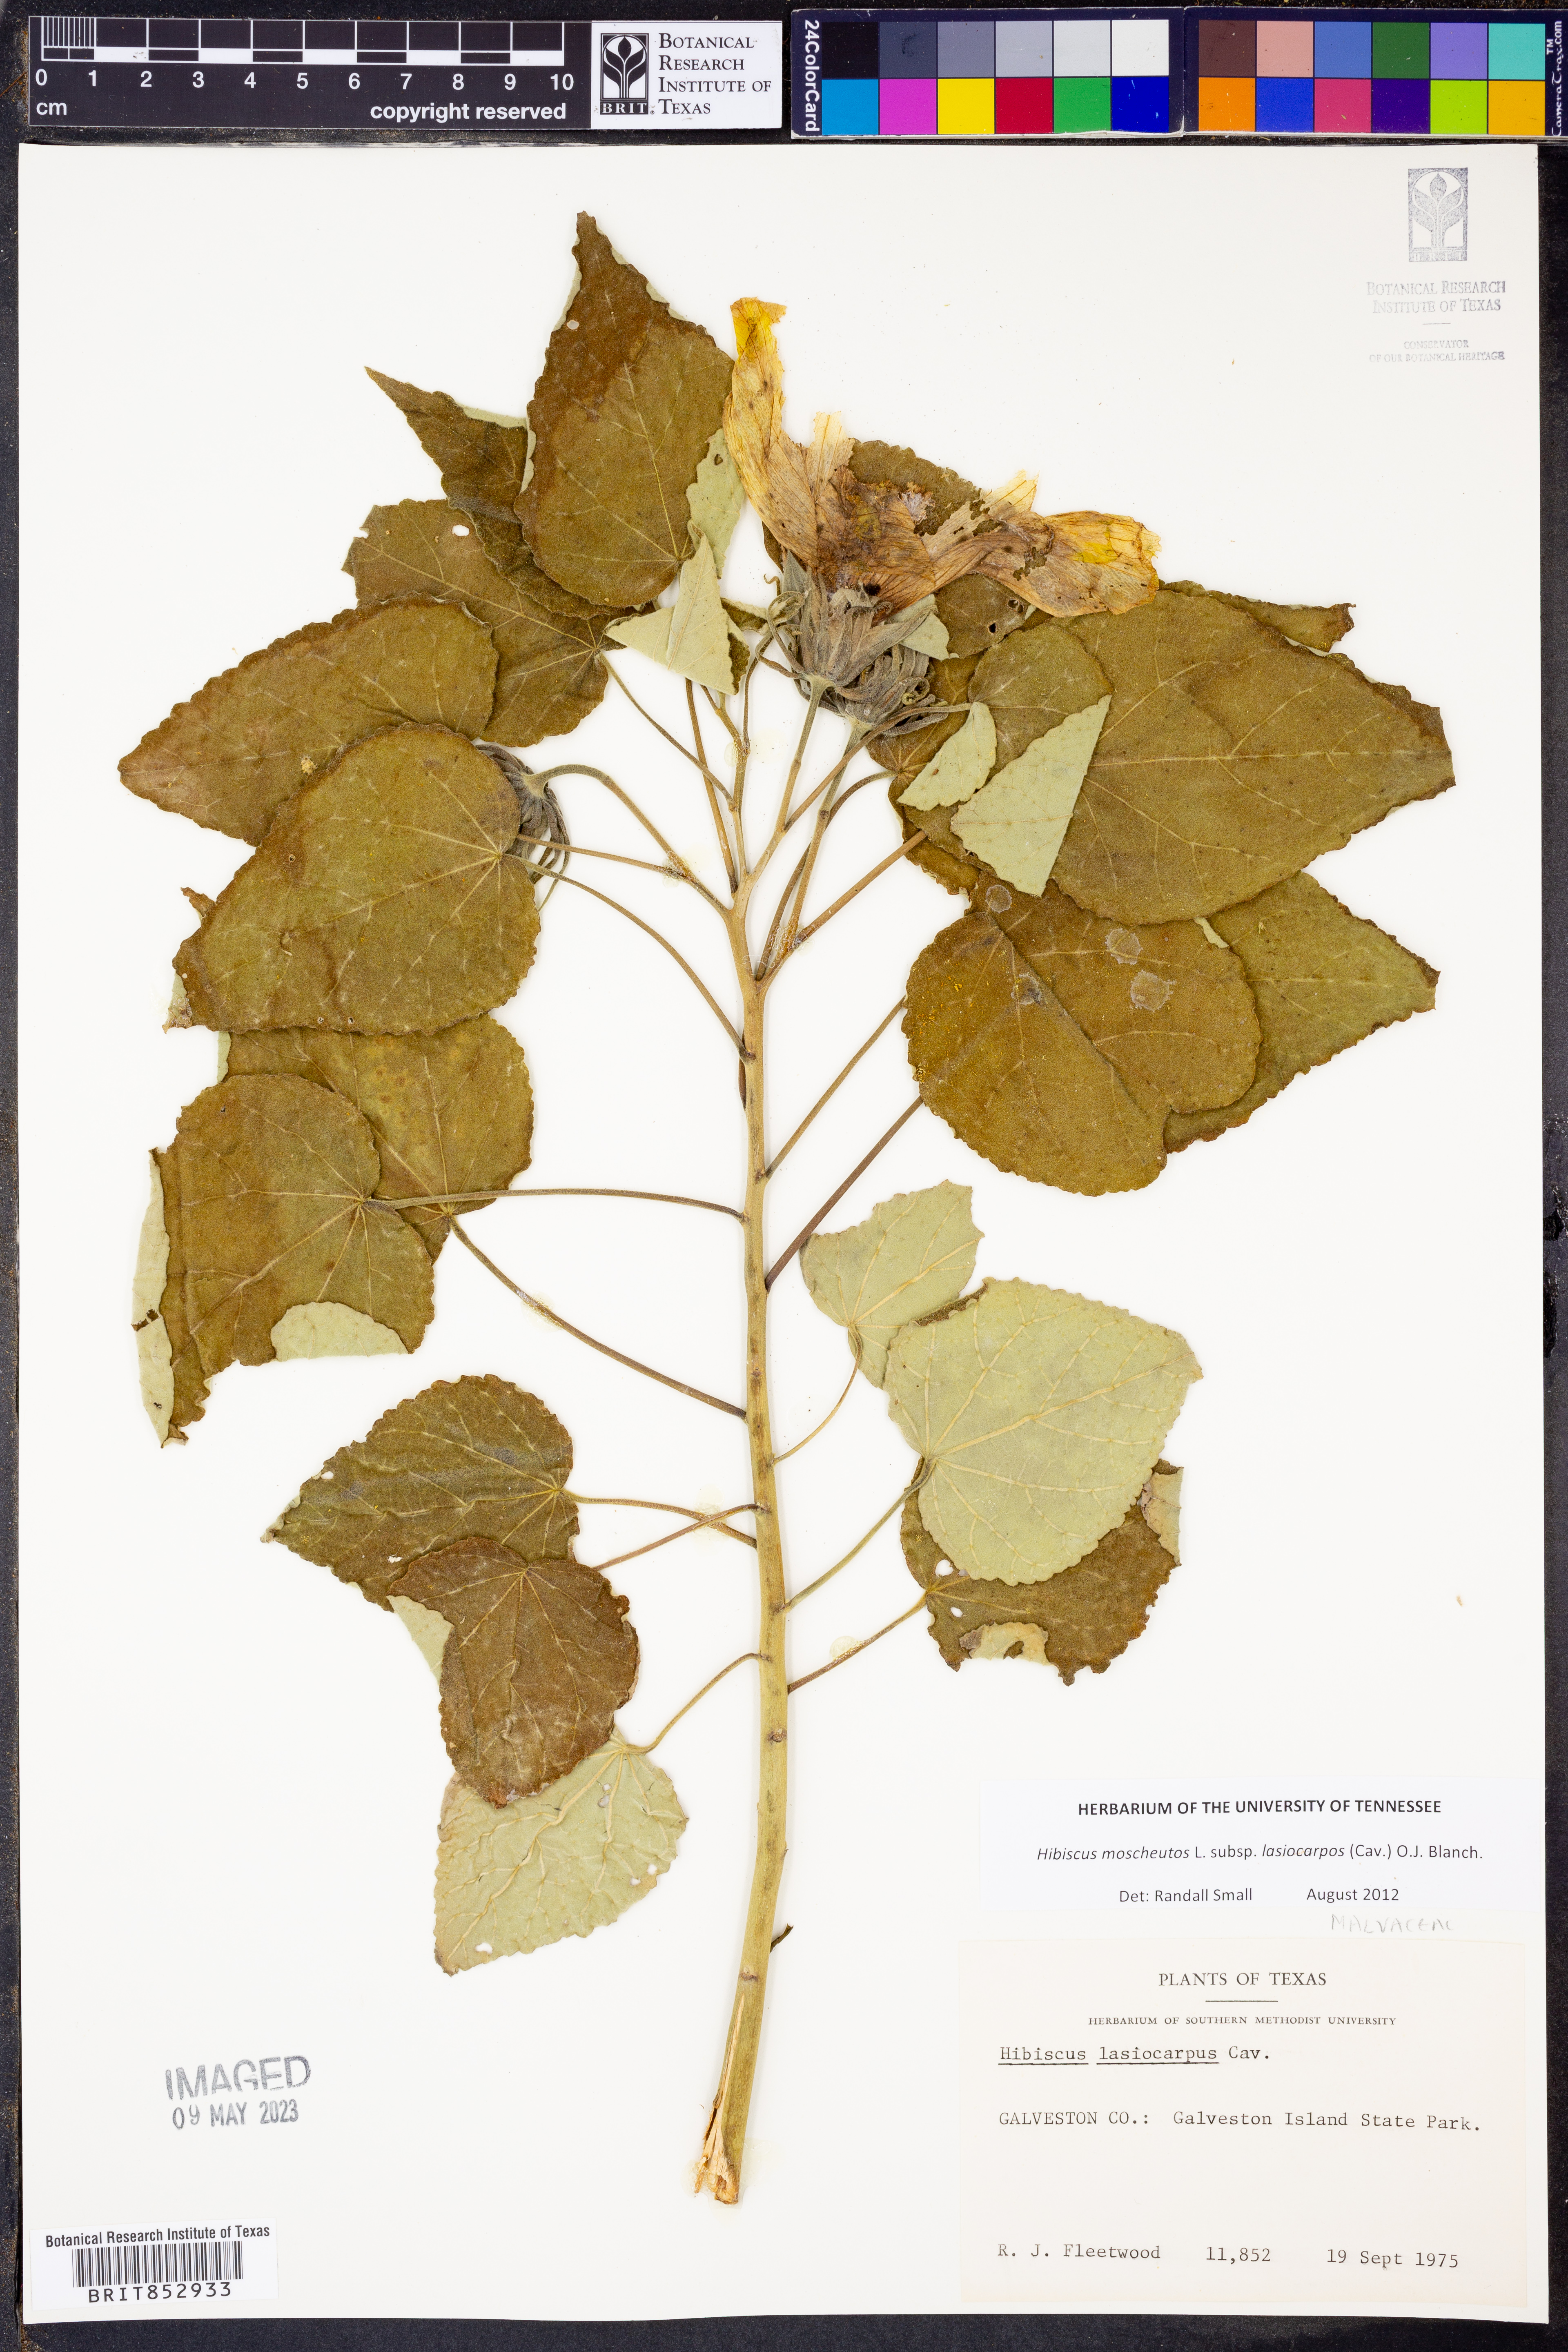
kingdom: Plantae
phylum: Tracheophyta
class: Magnoliopsida
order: Malvales
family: Malvaceae
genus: Hibiscus
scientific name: Hibiscus moscheutos
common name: Common rose-mallow
